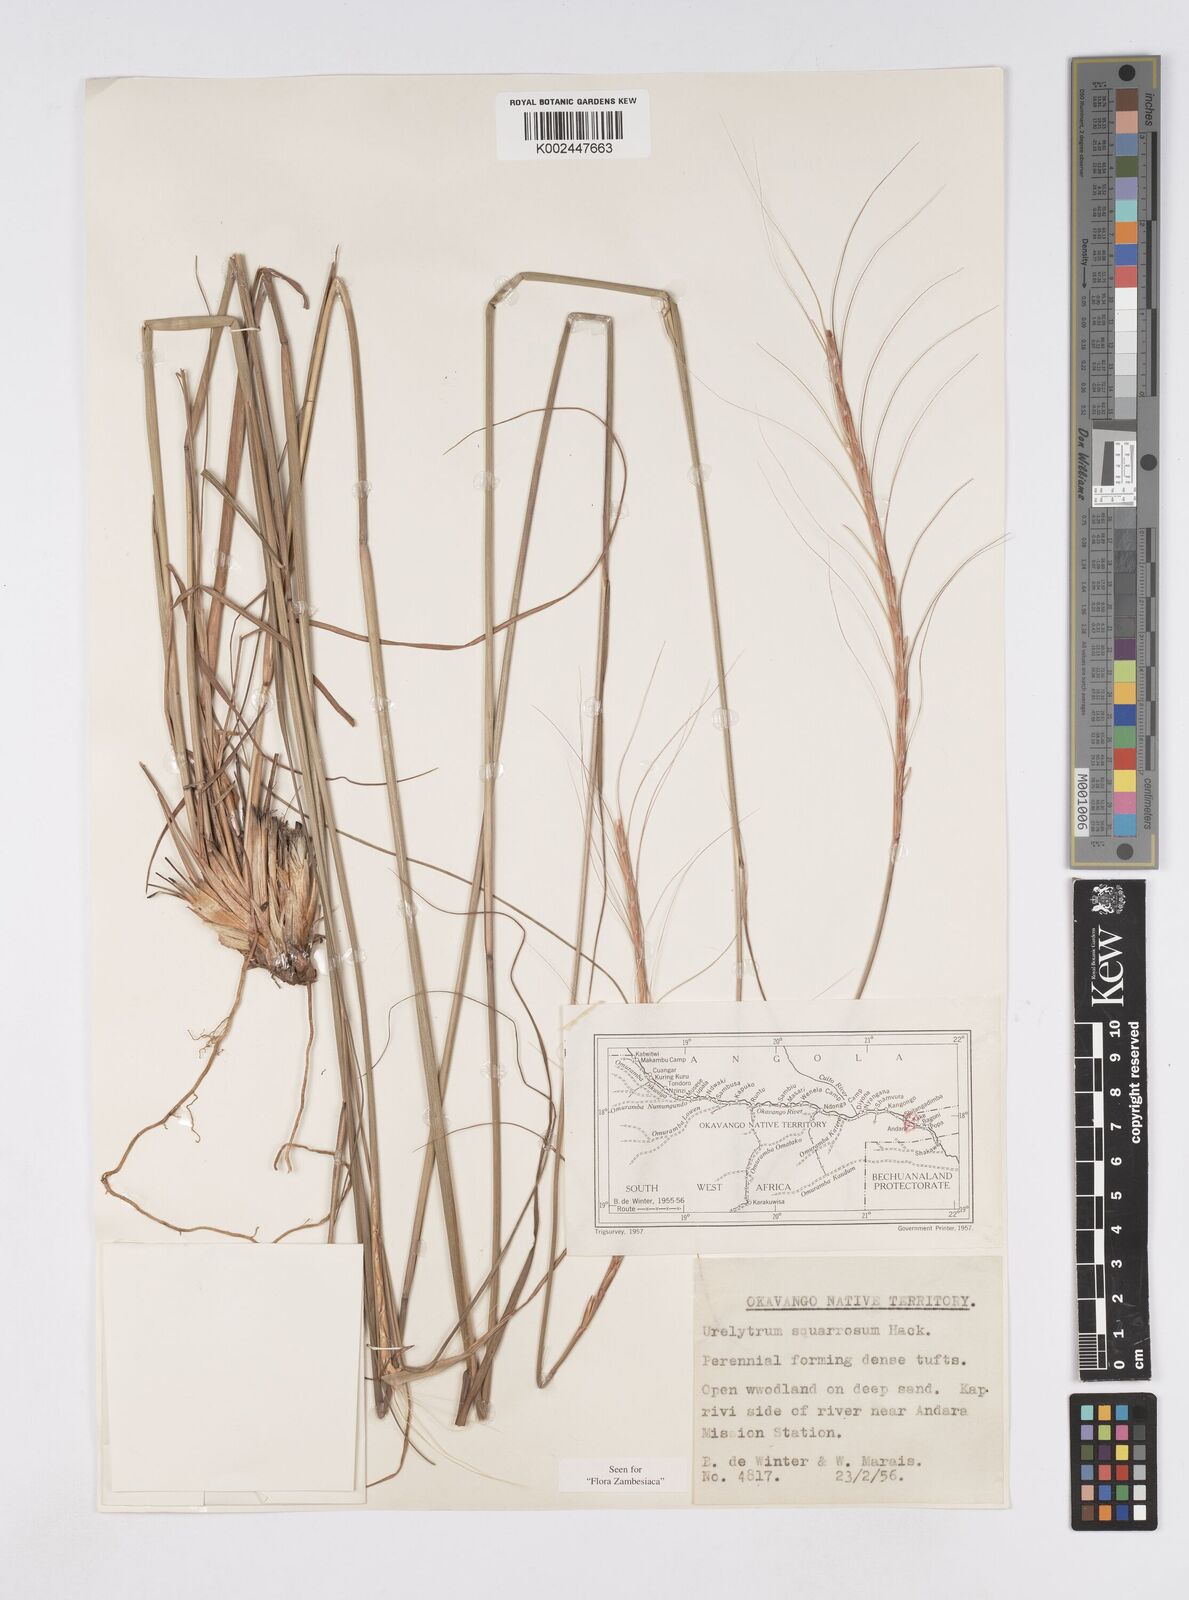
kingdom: Plantae
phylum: Tracheophyta
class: Liliopsida
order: Poales
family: Poaceae
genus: Urelytrum
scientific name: Urelytrum agropyroides
